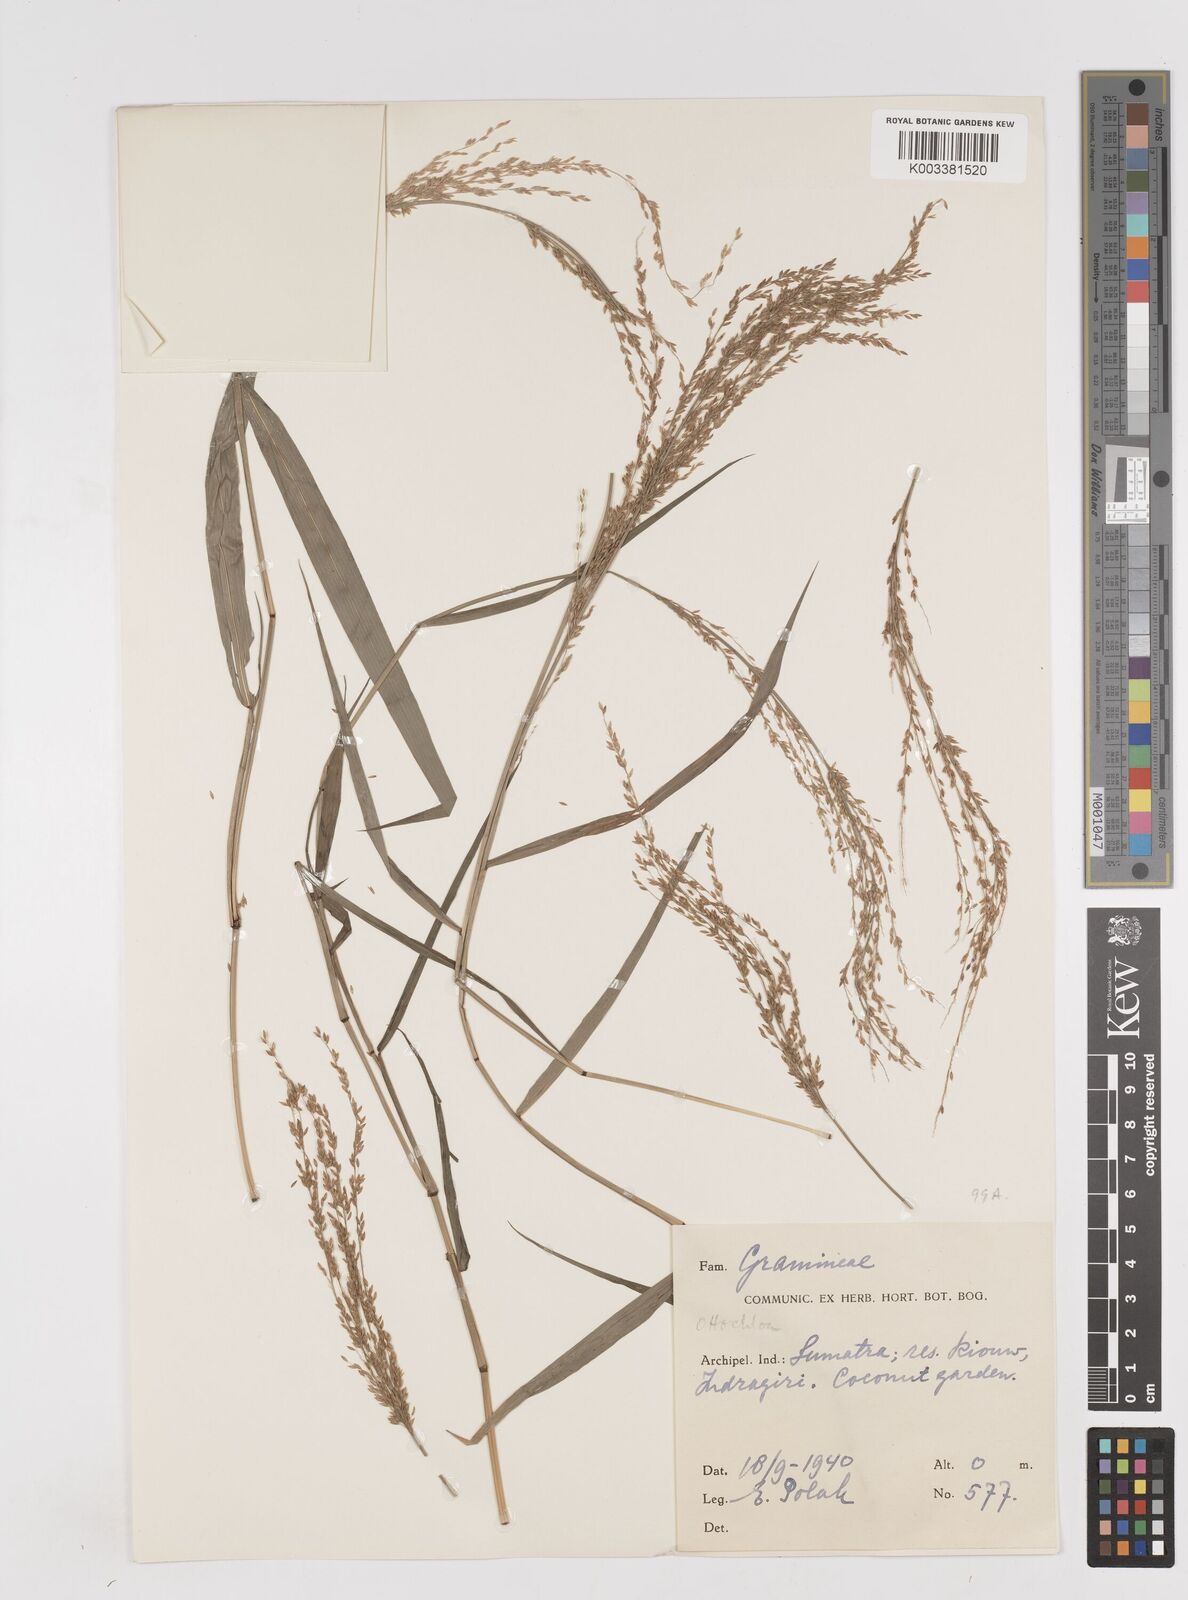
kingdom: Plantae
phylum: Tracheophyta
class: Liliopsida
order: Poales
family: Poaceae
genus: Ottochloa
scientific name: Ottochloa nodosa
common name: Slender-panic grass
